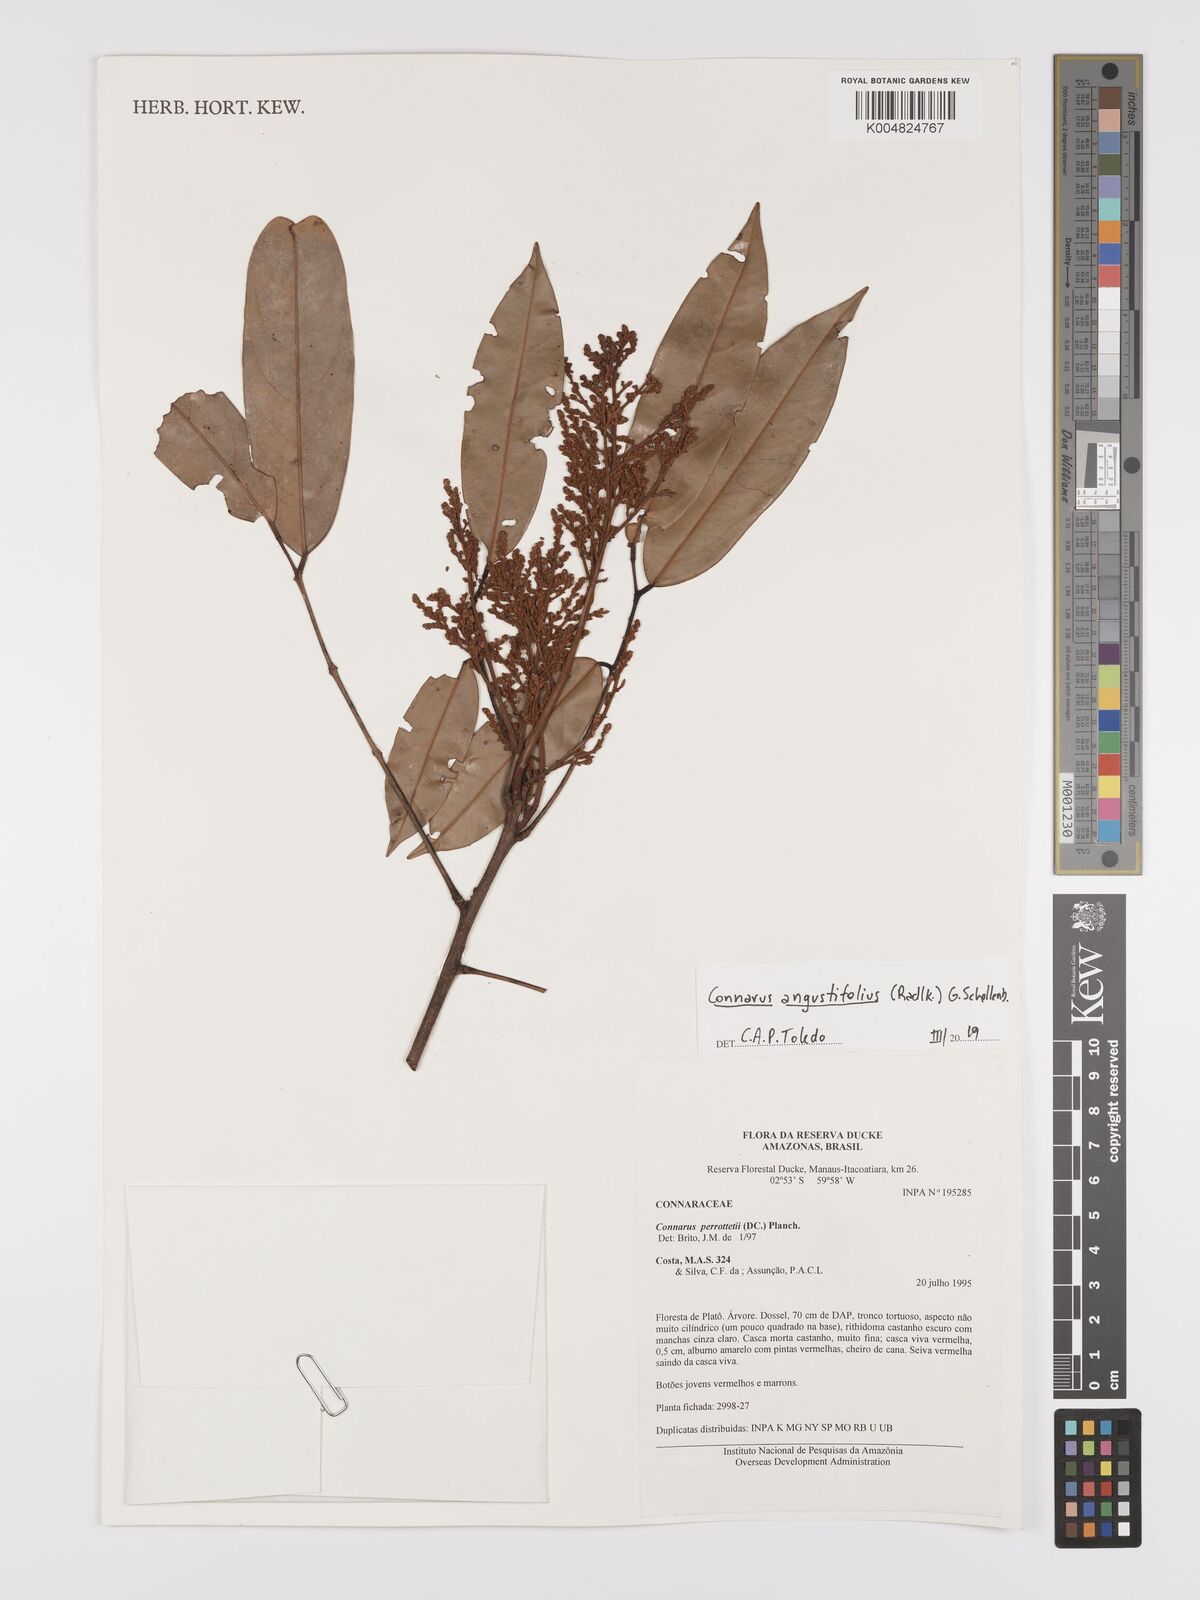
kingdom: Plantae
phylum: Tracheophyta
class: Magnoliopsida
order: Oxalidales
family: Connaraceae
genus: Connarus
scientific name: Connarus perrottetii
